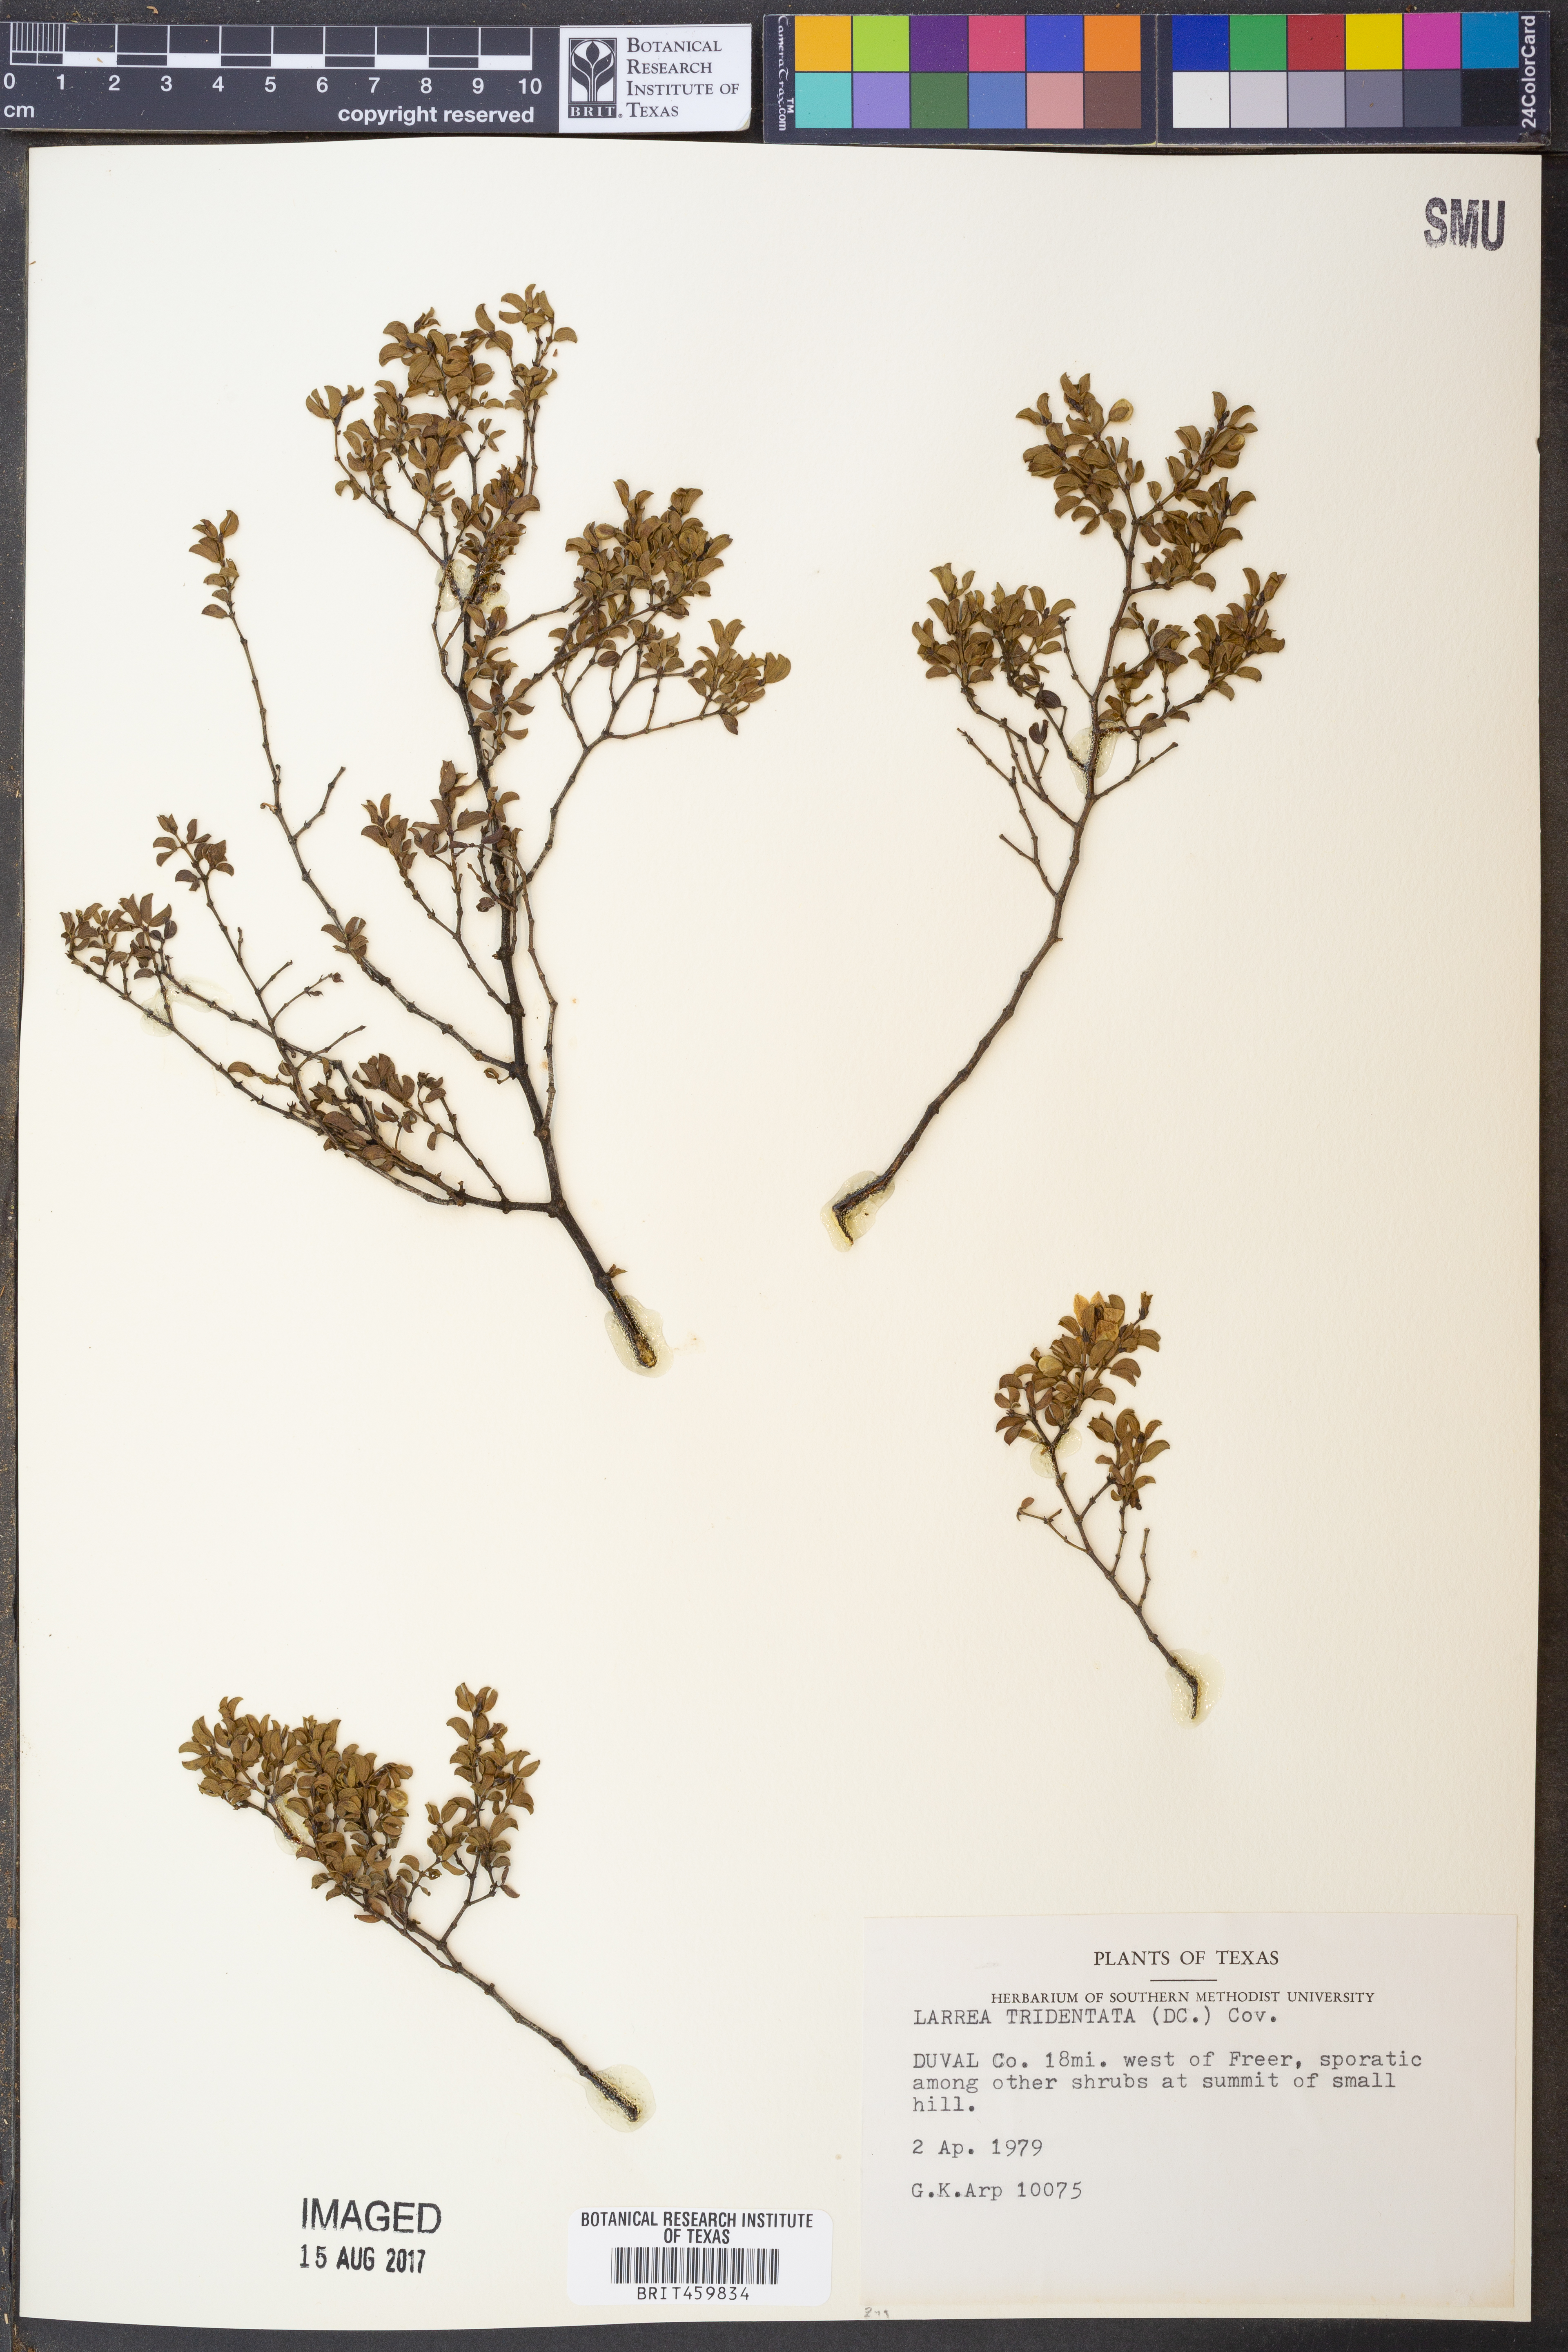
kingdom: Plantae
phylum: Tracheophyta
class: Magnoliopsida
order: Zygophyllales
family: Zygophyllaceae
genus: Larrea
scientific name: Larrea tridentata
